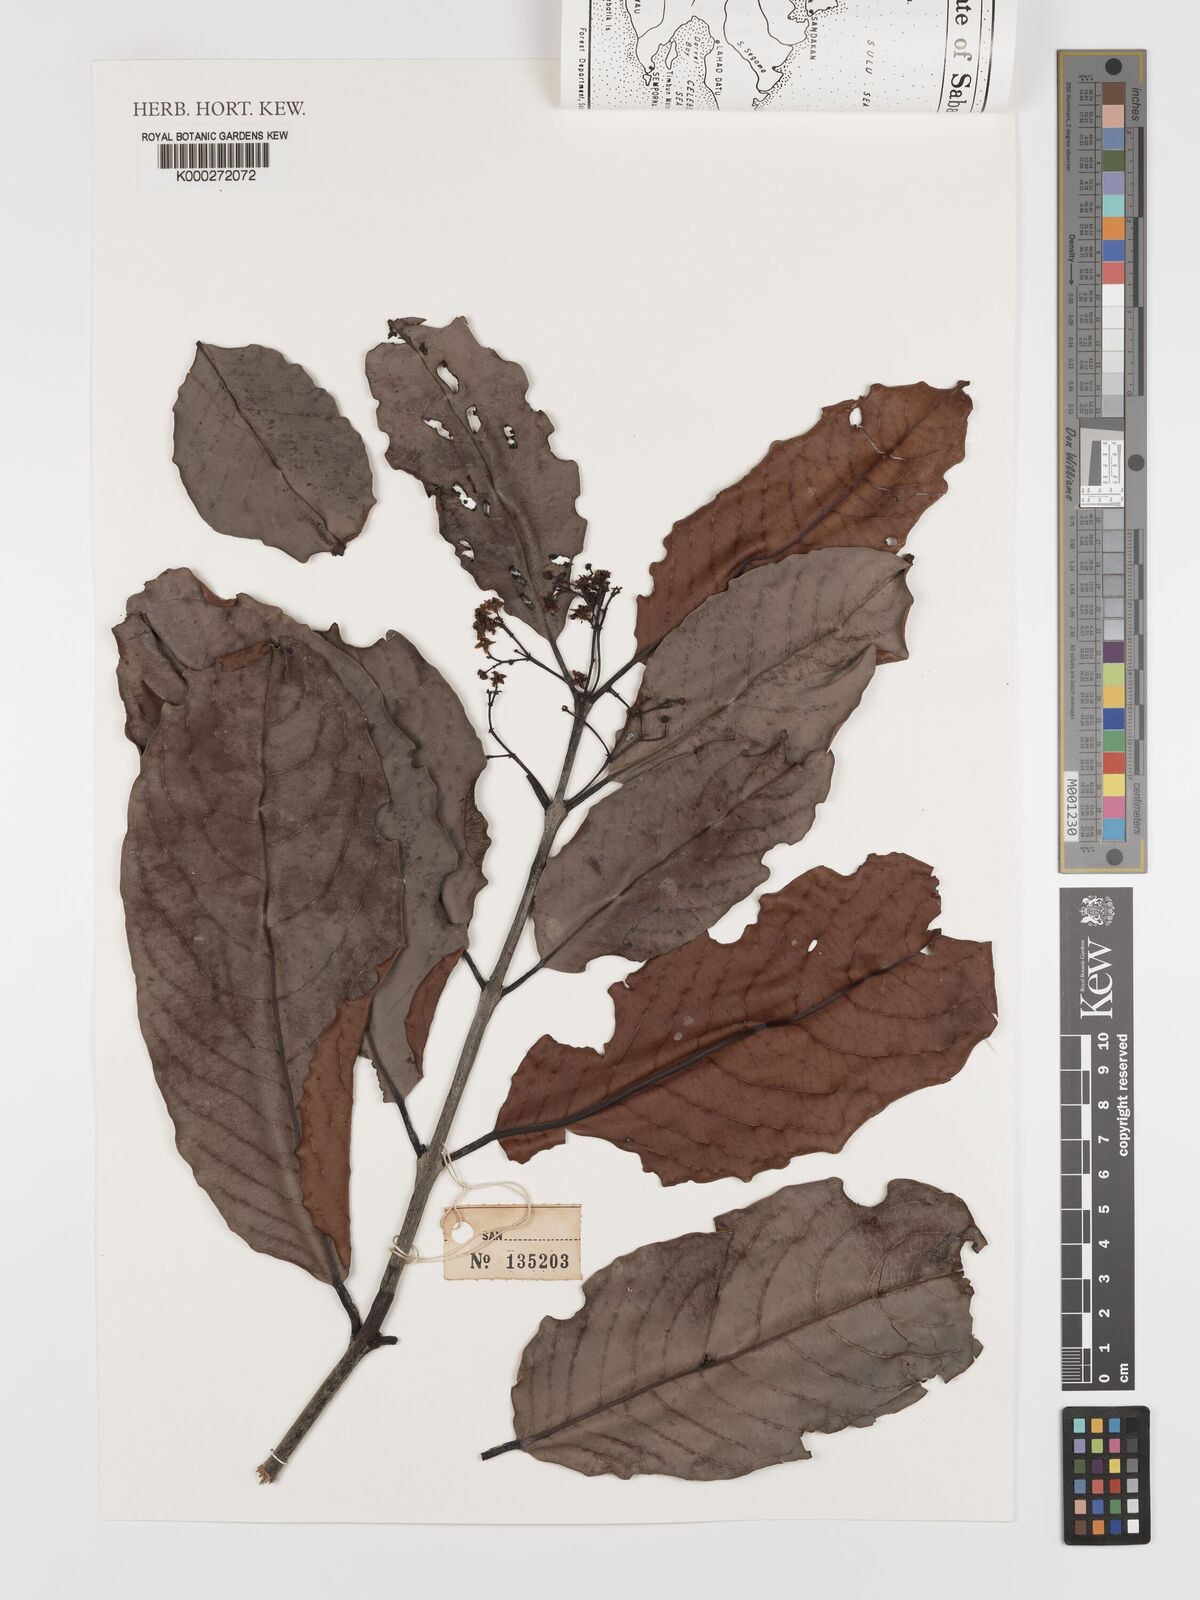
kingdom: Plantae
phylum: Tracheophyta
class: Magnoliopsida
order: Celastrales
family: Celastraceae
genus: Lophopetalum
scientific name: Lophopetalum multinervium
